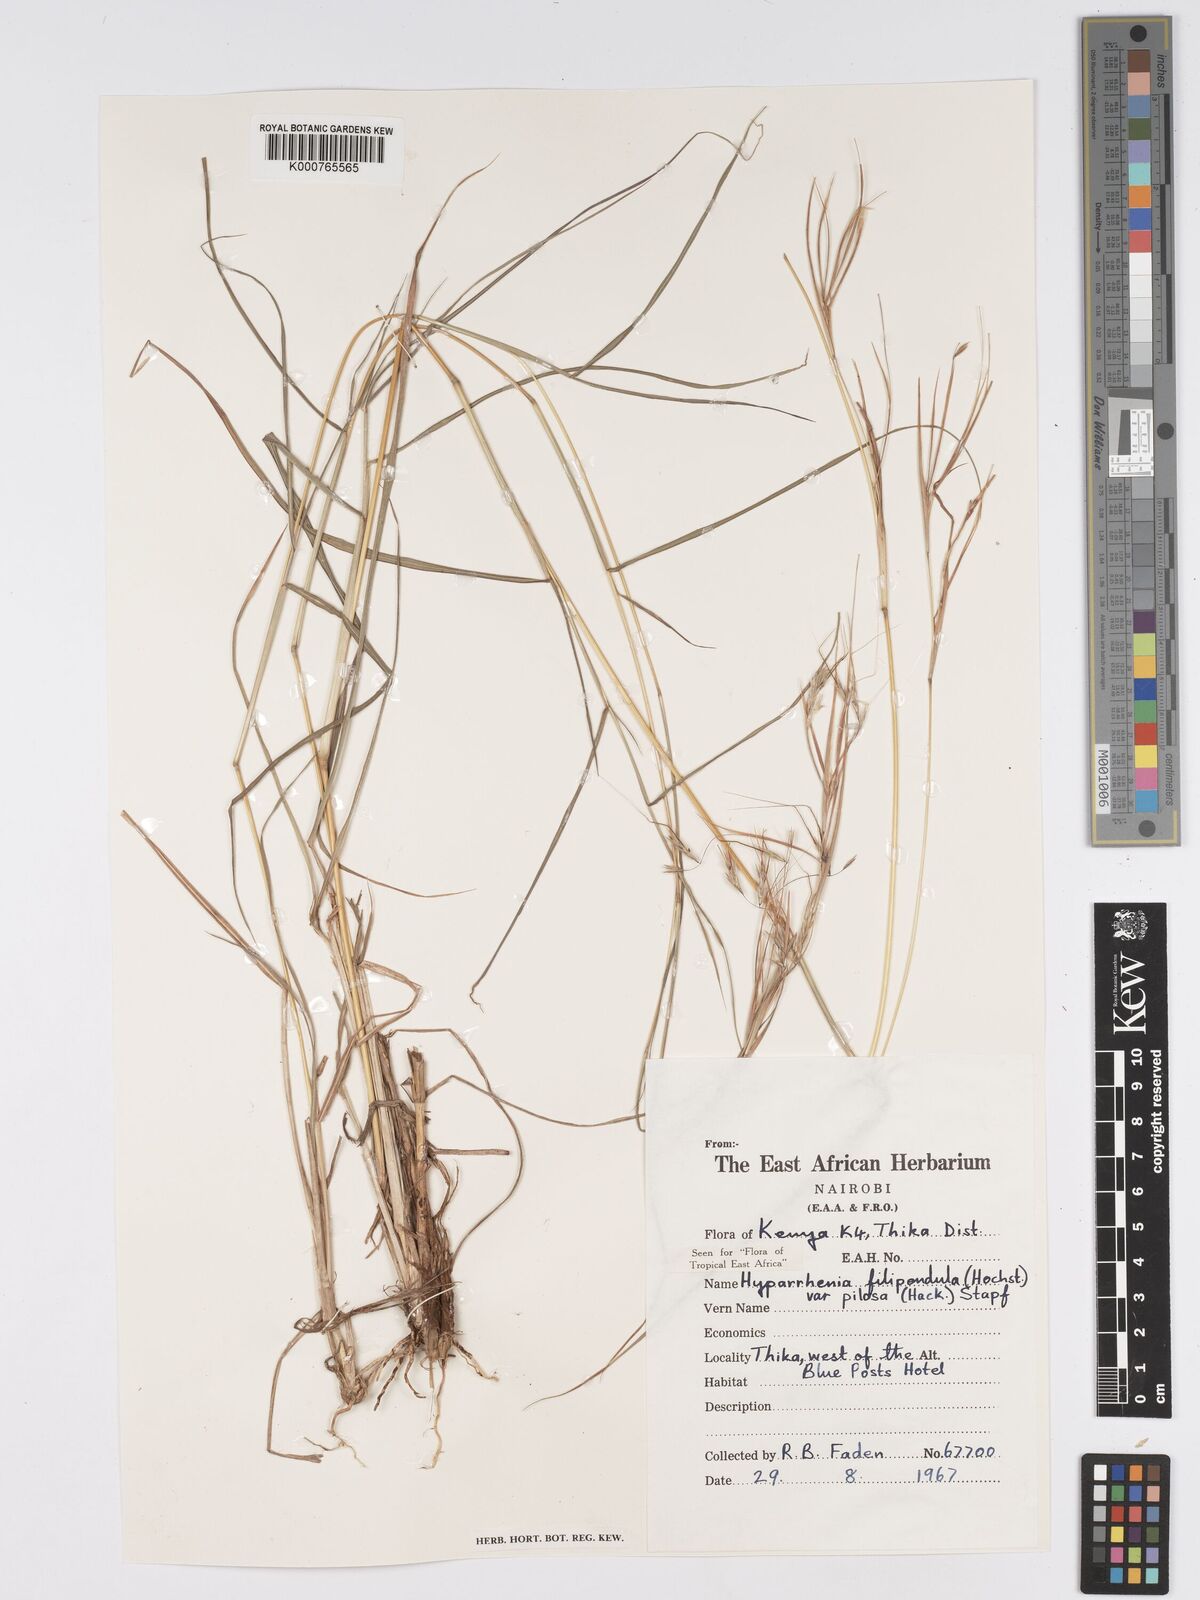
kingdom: Plantae
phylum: Tracheophyta
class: Liliopsida
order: Poales
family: Poaceae
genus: Hyparrhenia
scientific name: Hyparrhenia filipendula
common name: Tambookie grass
